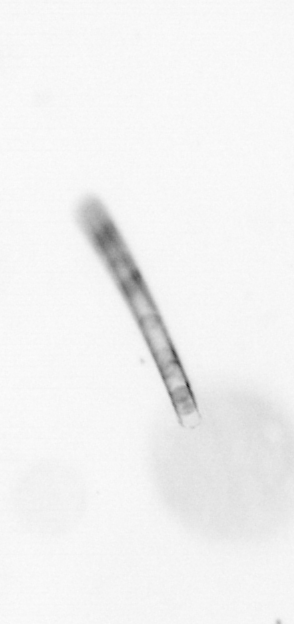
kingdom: Chromista
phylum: Ochrophyta
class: Bacillariophyceae
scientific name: Bacillariophyceae
